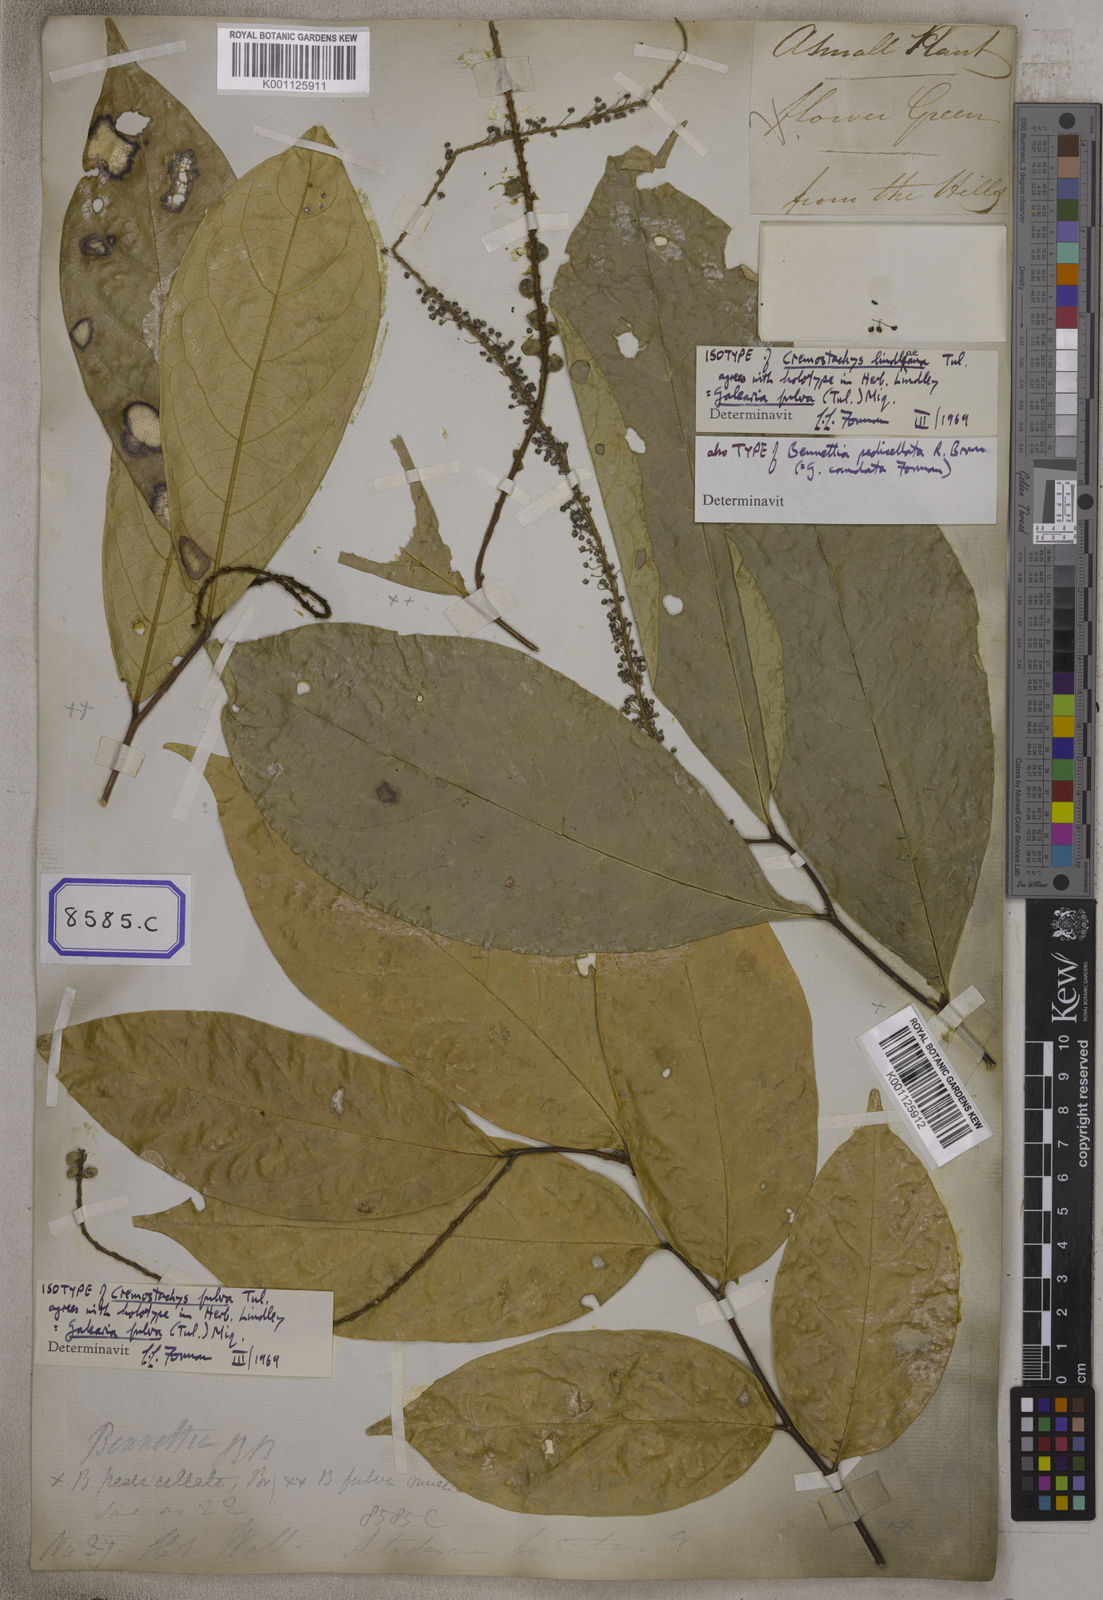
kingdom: Plantae
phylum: Tracheophyta
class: Magnoliopsida
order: Malpighiales
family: Pandaceae
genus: Galearia
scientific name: Galearia
